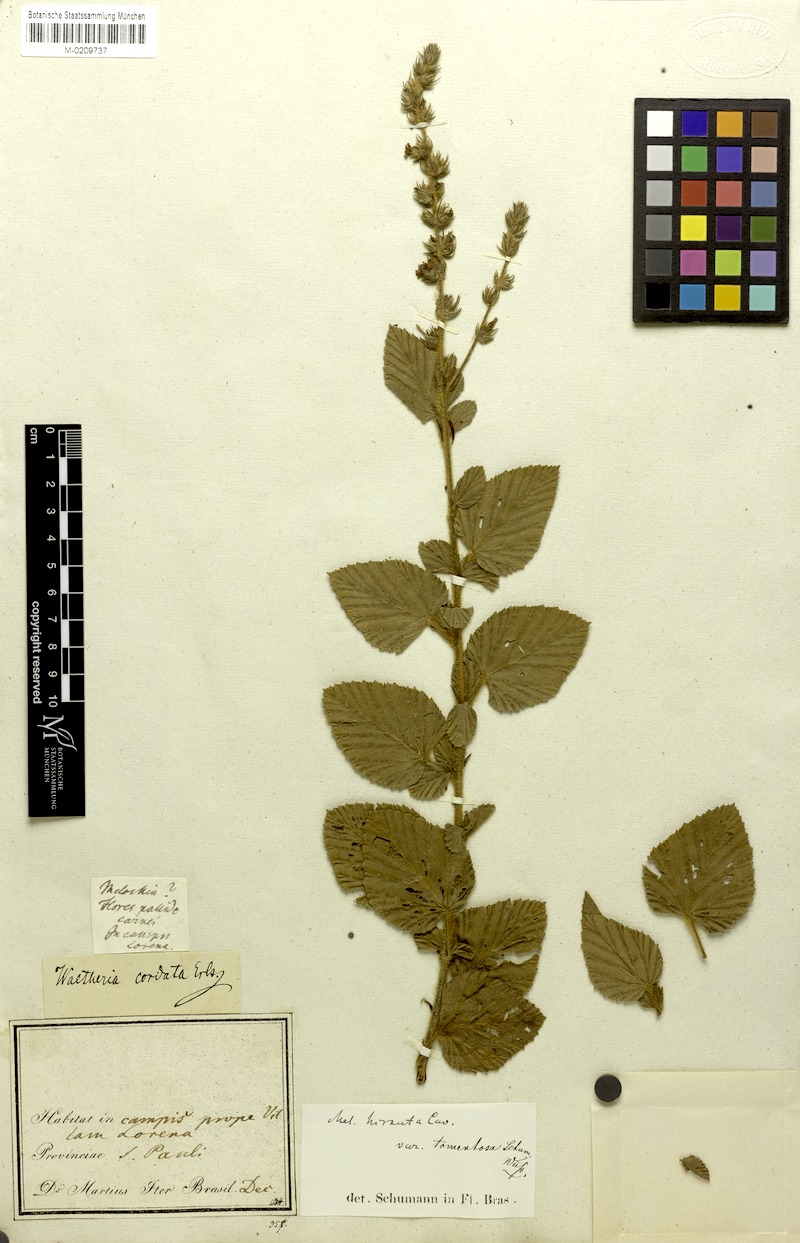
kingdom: Plantae
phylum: Tracheophyta
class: Magnoliopsida
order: Malvales
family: Malvaceae
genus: Melochia
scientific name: Melochia spicata
